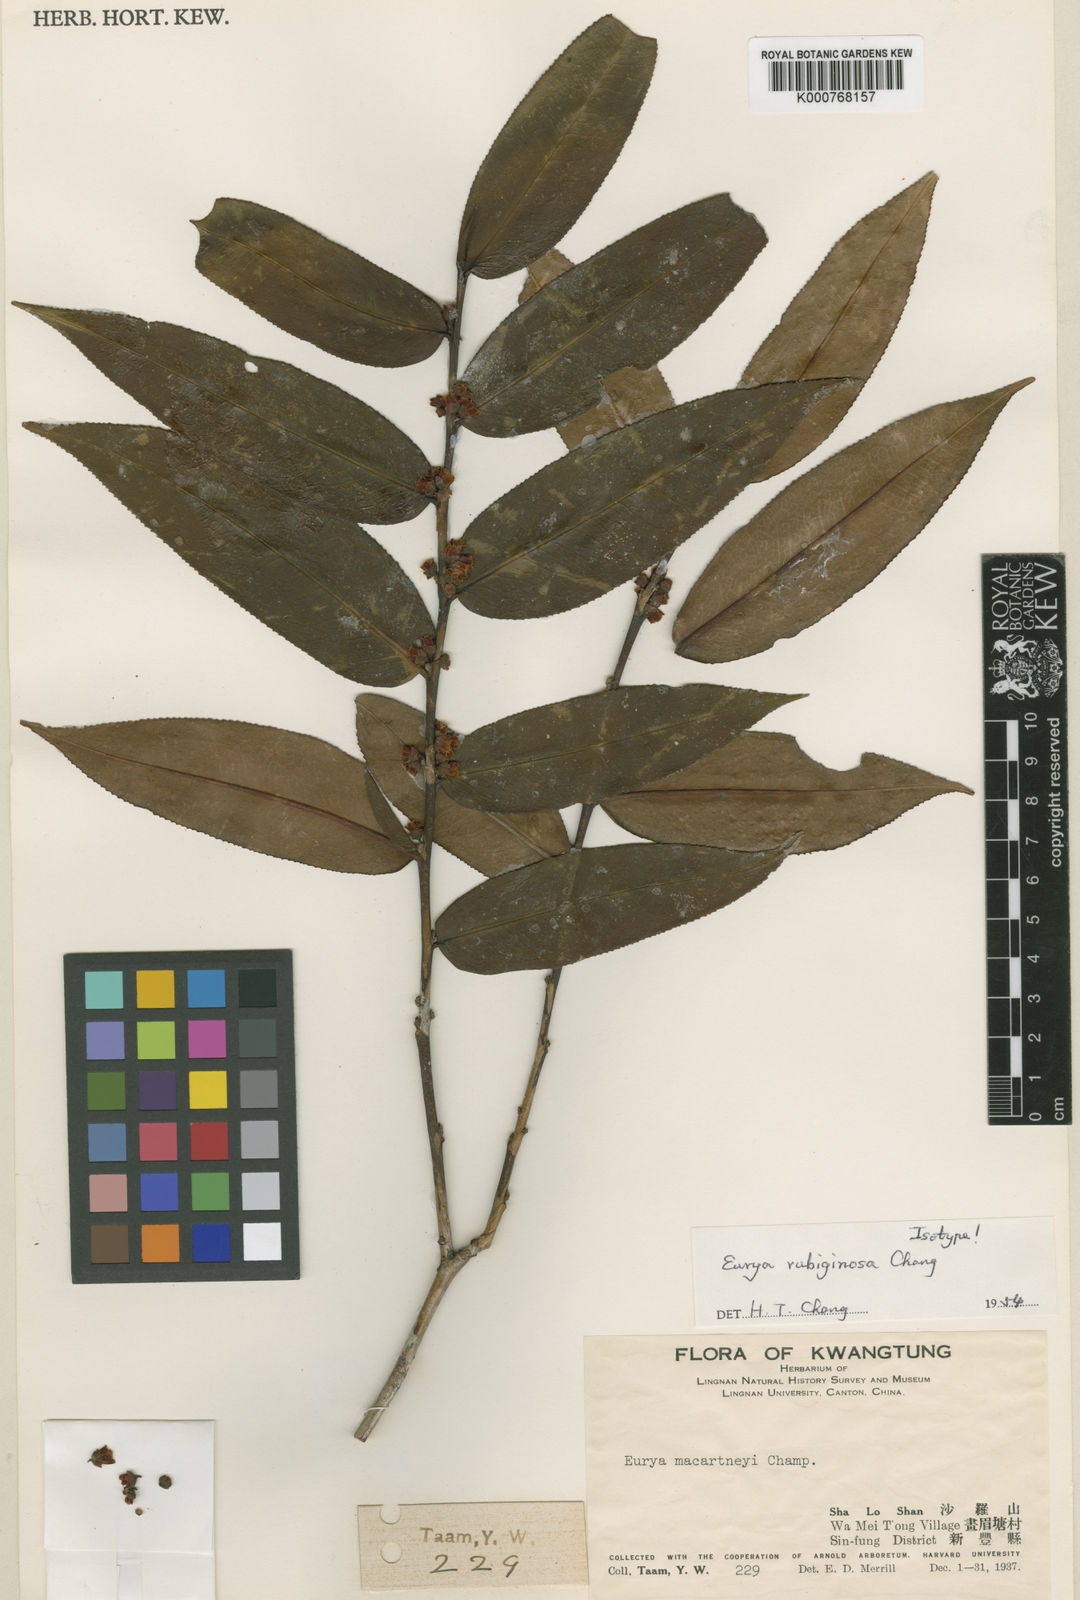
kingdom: Plantae
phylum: Tracheophyta
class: Magnoliopsida
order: Ericales
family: Pentaphylacaceae
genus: Eurya
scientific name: Eurya rubiginosa
